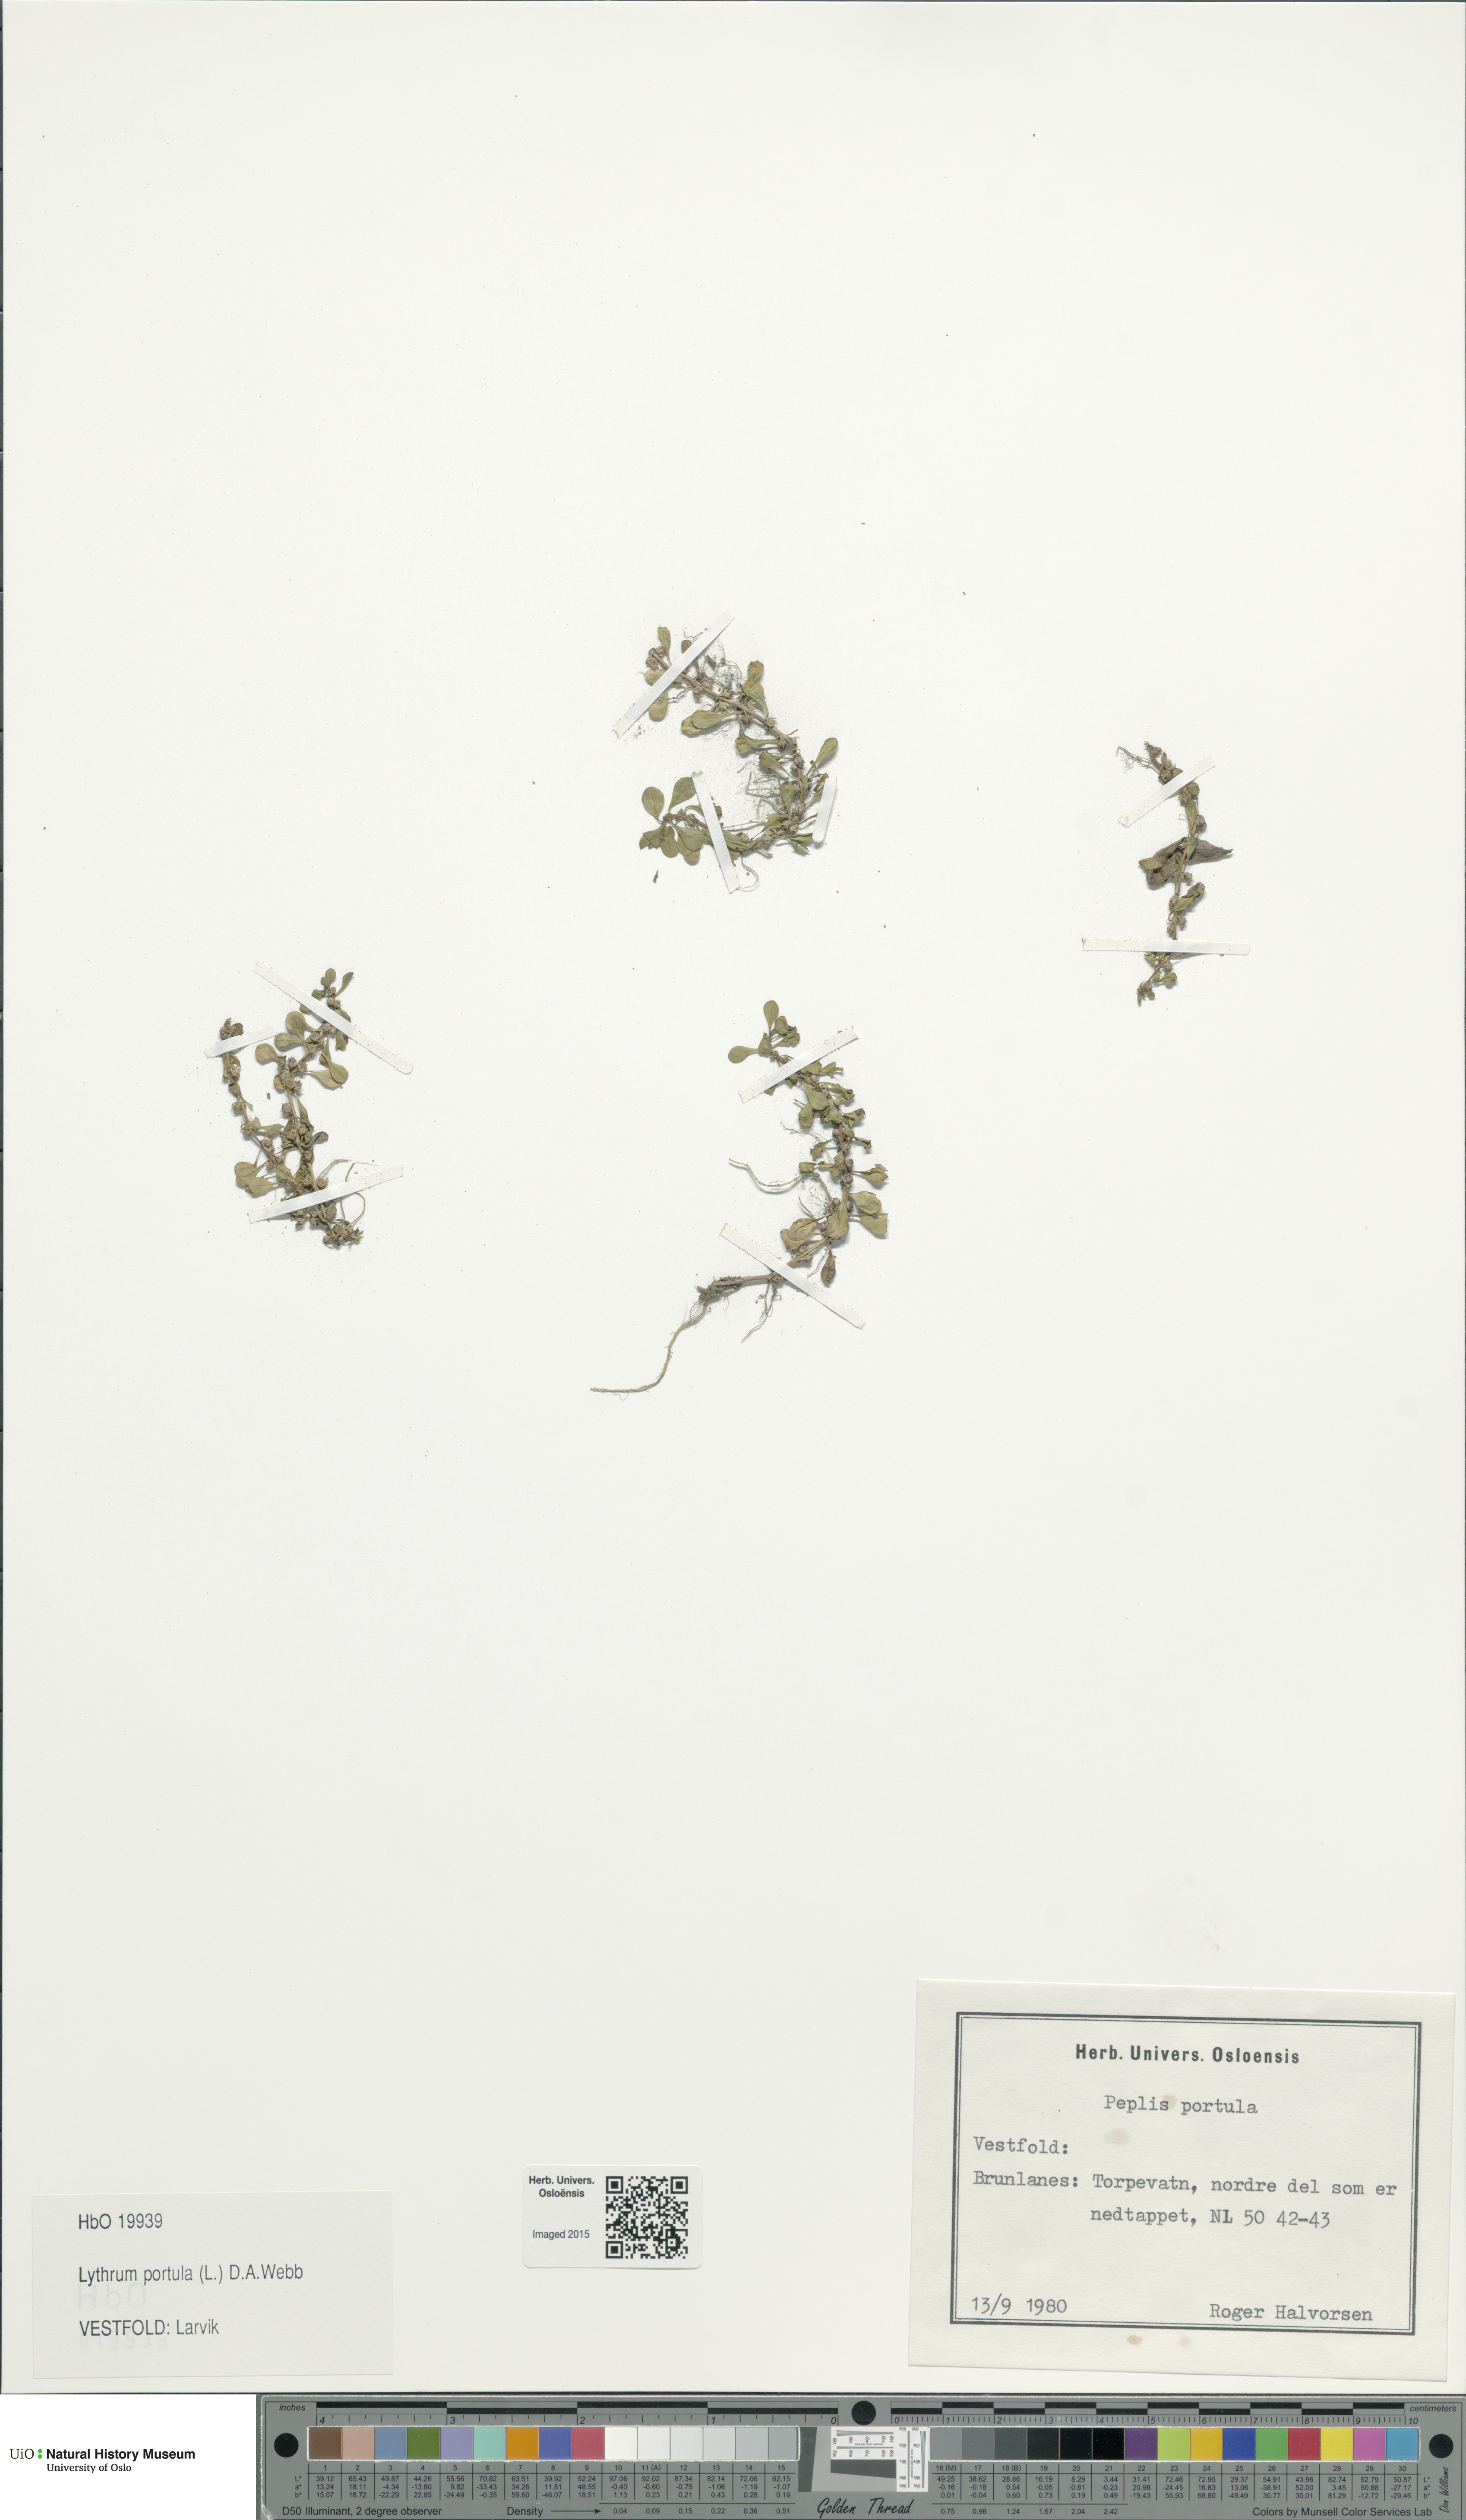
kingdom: Plantae
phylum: Tracheophyta
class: Magnoliopsida
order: Myrtales
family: Lythraceae
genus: Lythrum
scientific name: Lythrum portula
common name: Water purslane
